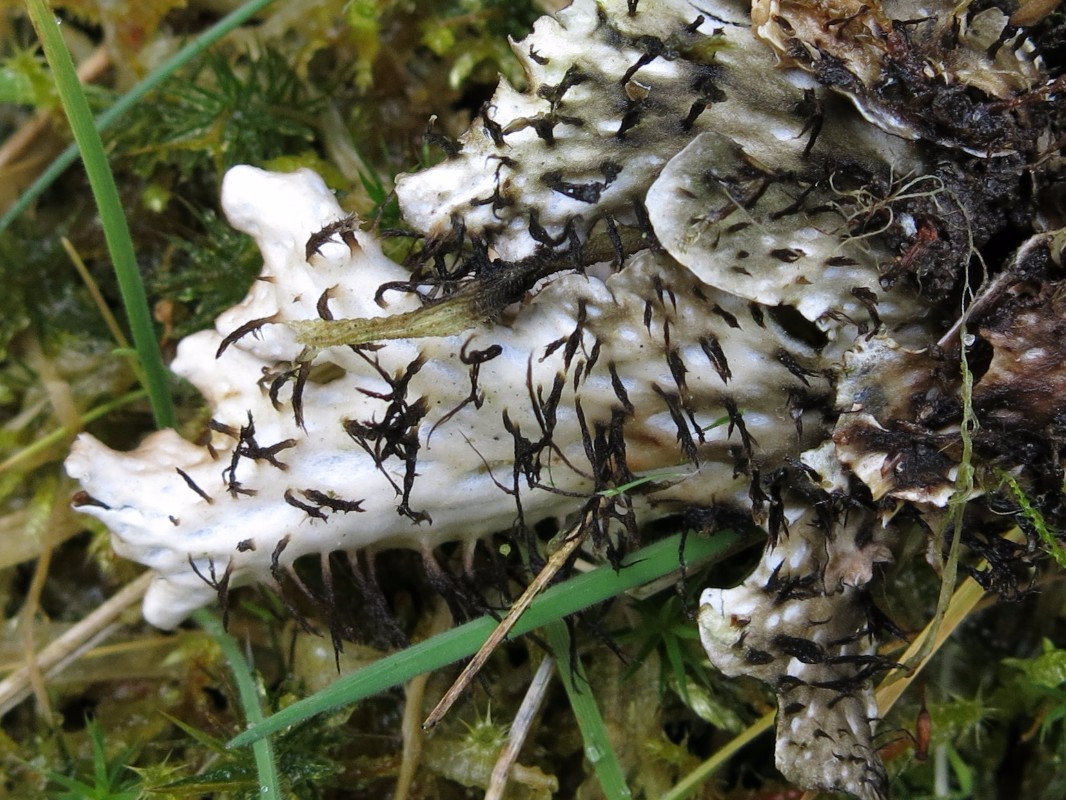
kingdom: Fungi
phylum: Ascomycota
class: Lecanoromycetes
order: Peltigerales
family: Peltigeraceae
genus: Peltigera
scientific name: Peltigera hymenina
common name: hinde-skjoldlav
